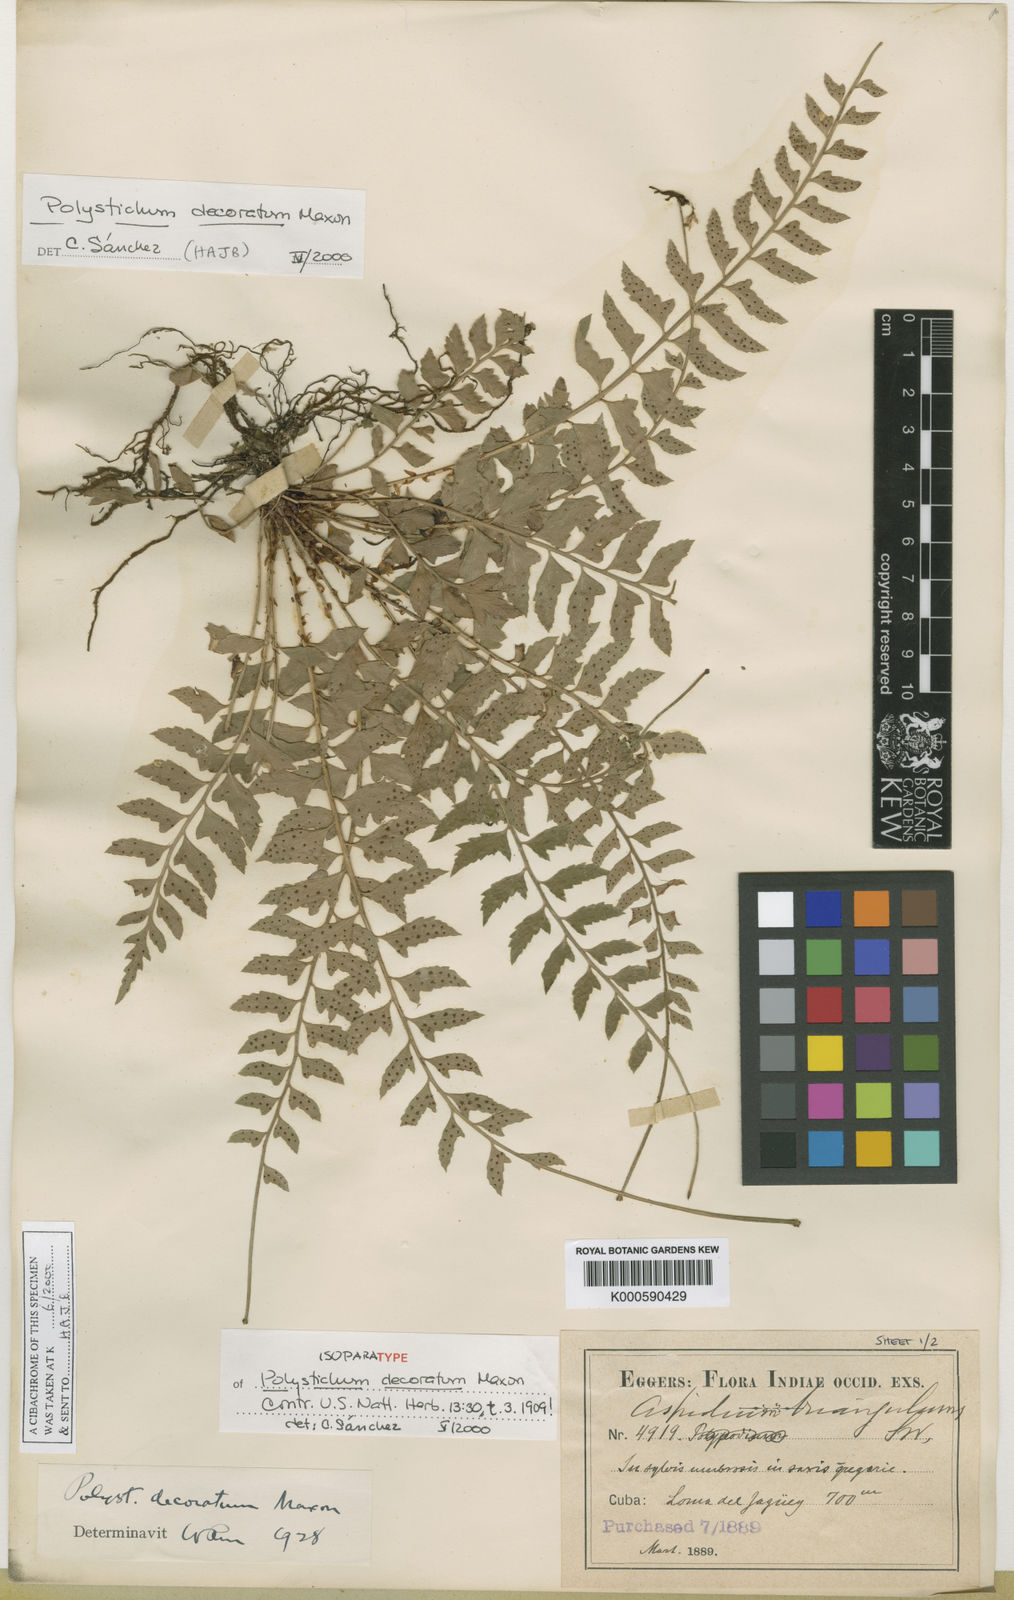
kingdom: Plantae
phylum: Tracheophyta
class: Polypodiopsida
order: Polypodiales
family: Dryopteridaceae
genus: Polystichum
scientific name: Polystichum decoratum
